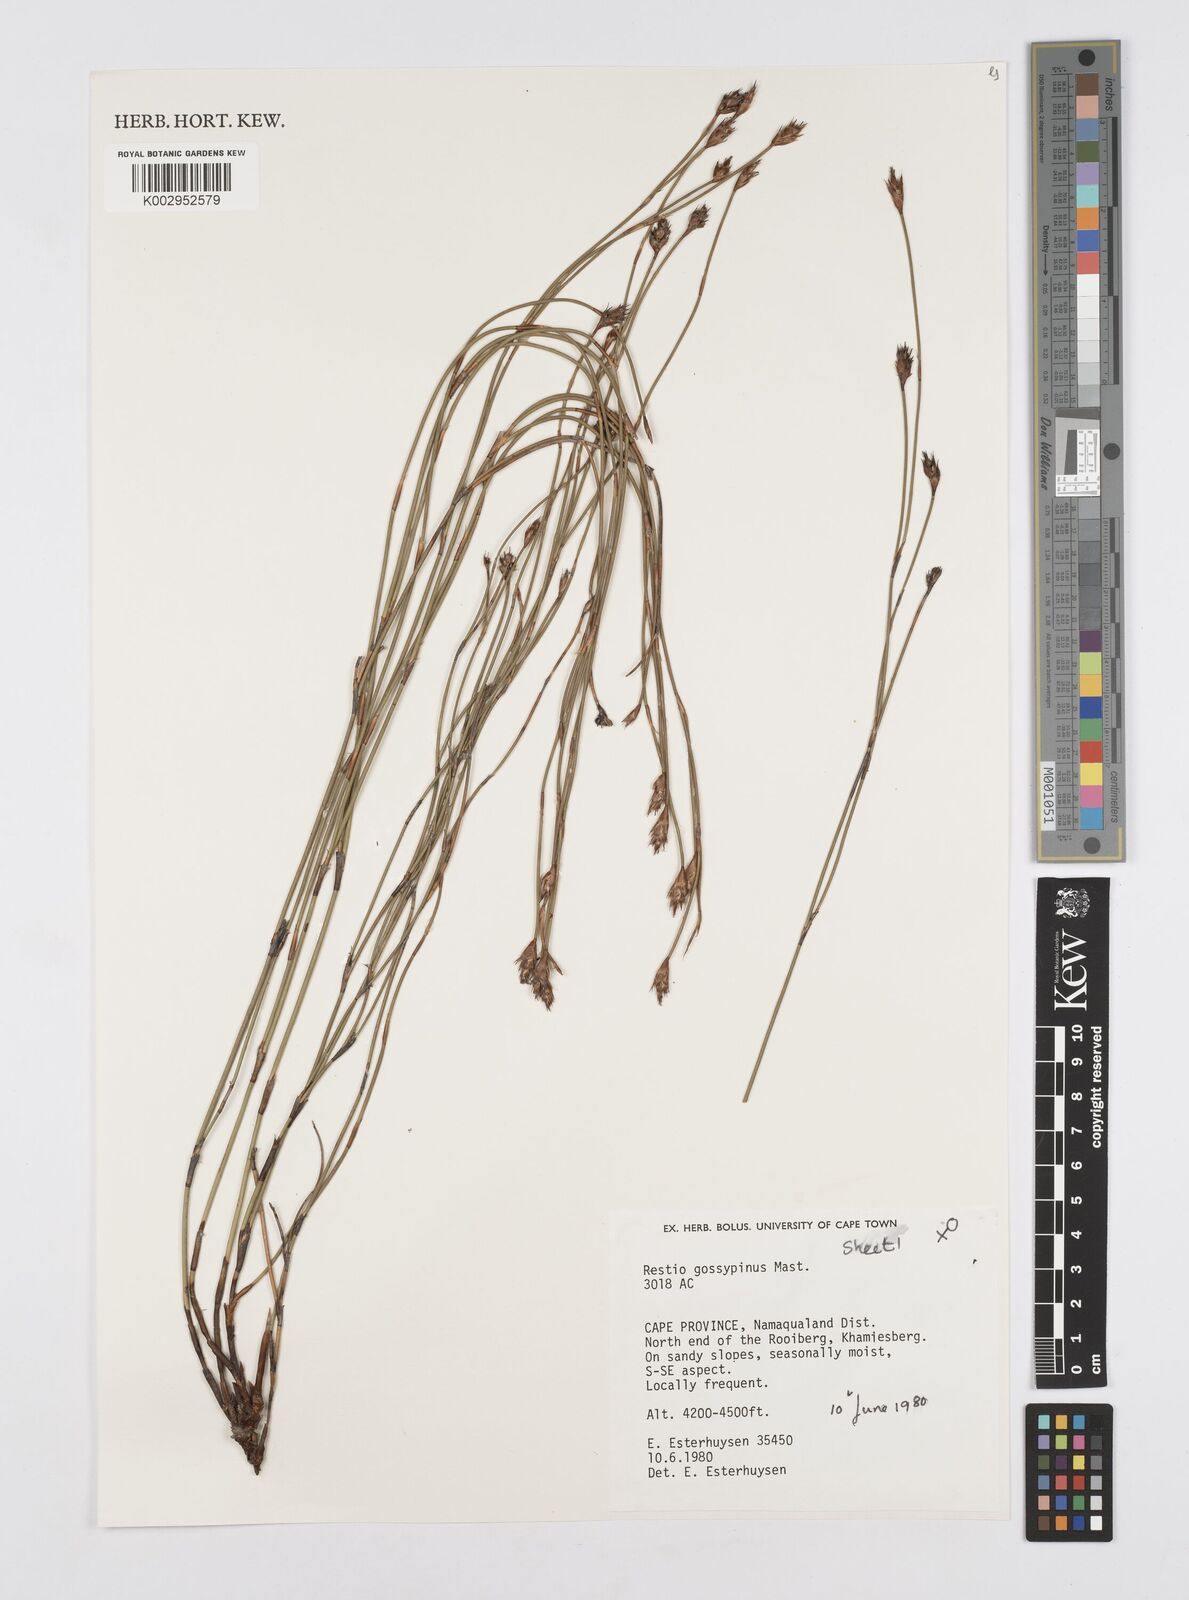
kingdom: Plantae
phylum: Tracheophyta
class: Liliopsida
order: Poales
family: Restionaceae
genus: Restio
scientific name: Restio gossypinus
